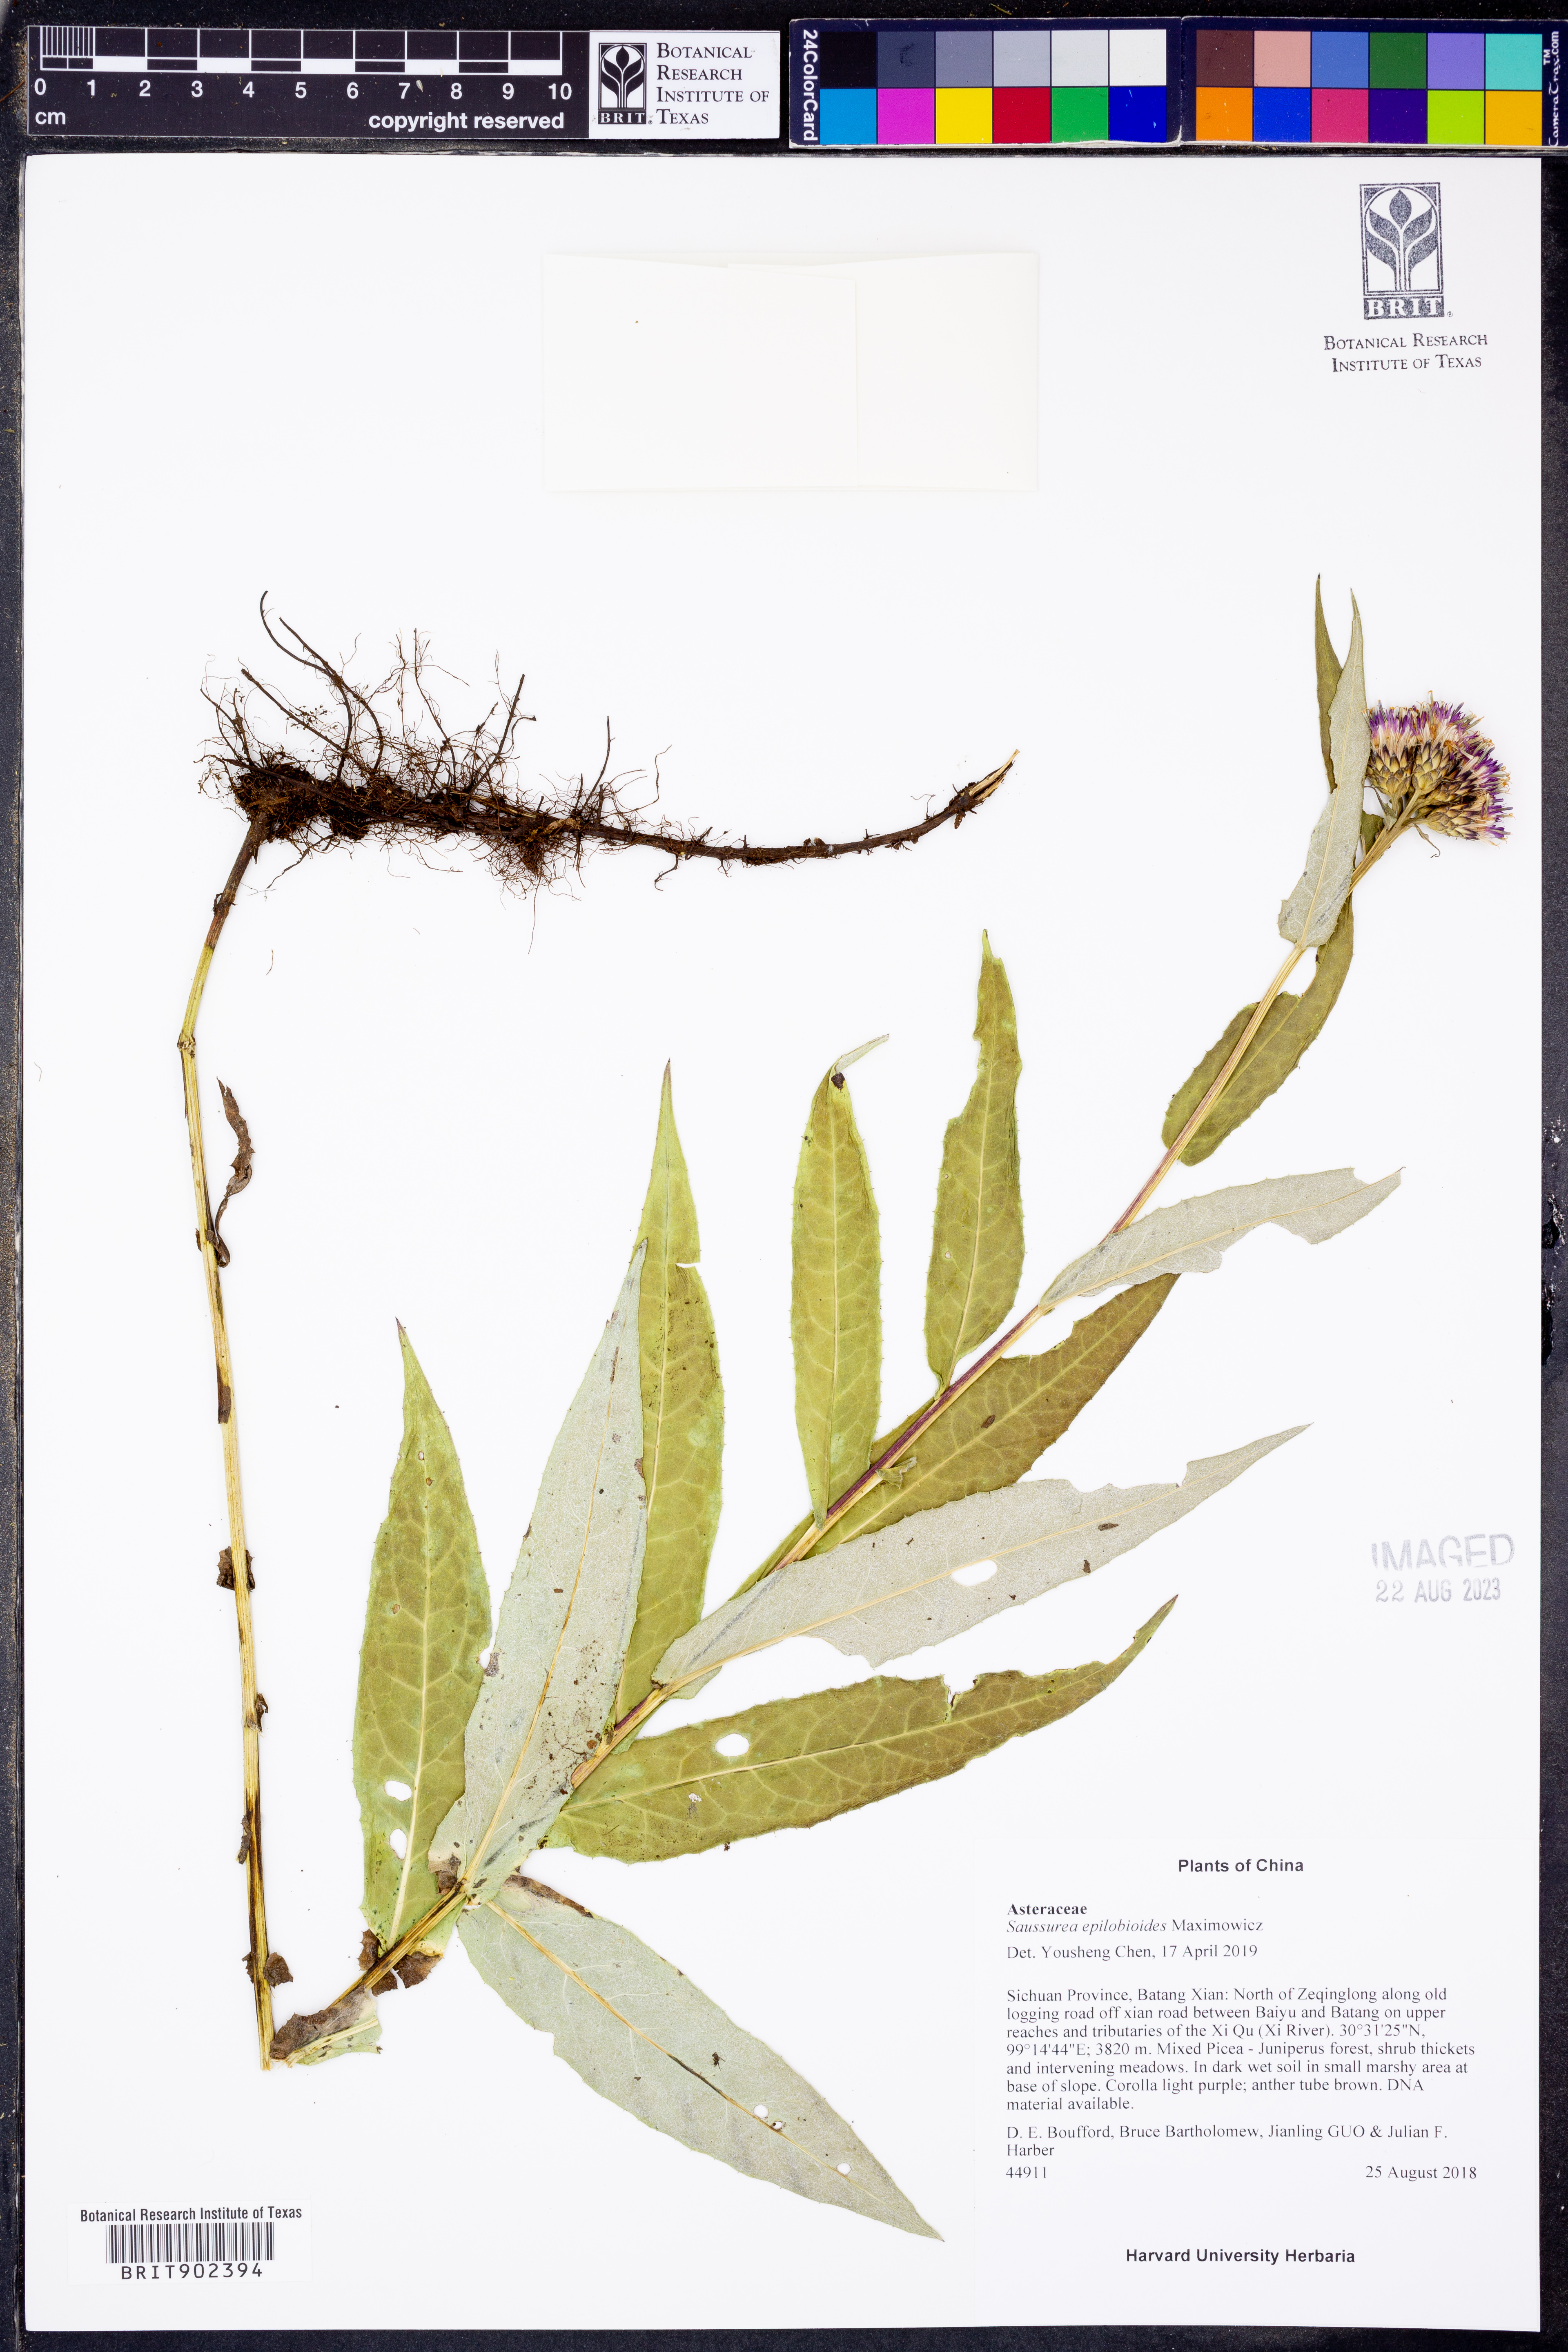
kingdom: Plantae
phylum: Tracheophyta
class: Magnoliopsida
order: Asterales
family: Asteraceae
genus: Saussurea
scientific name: Saussurea epilobioides
